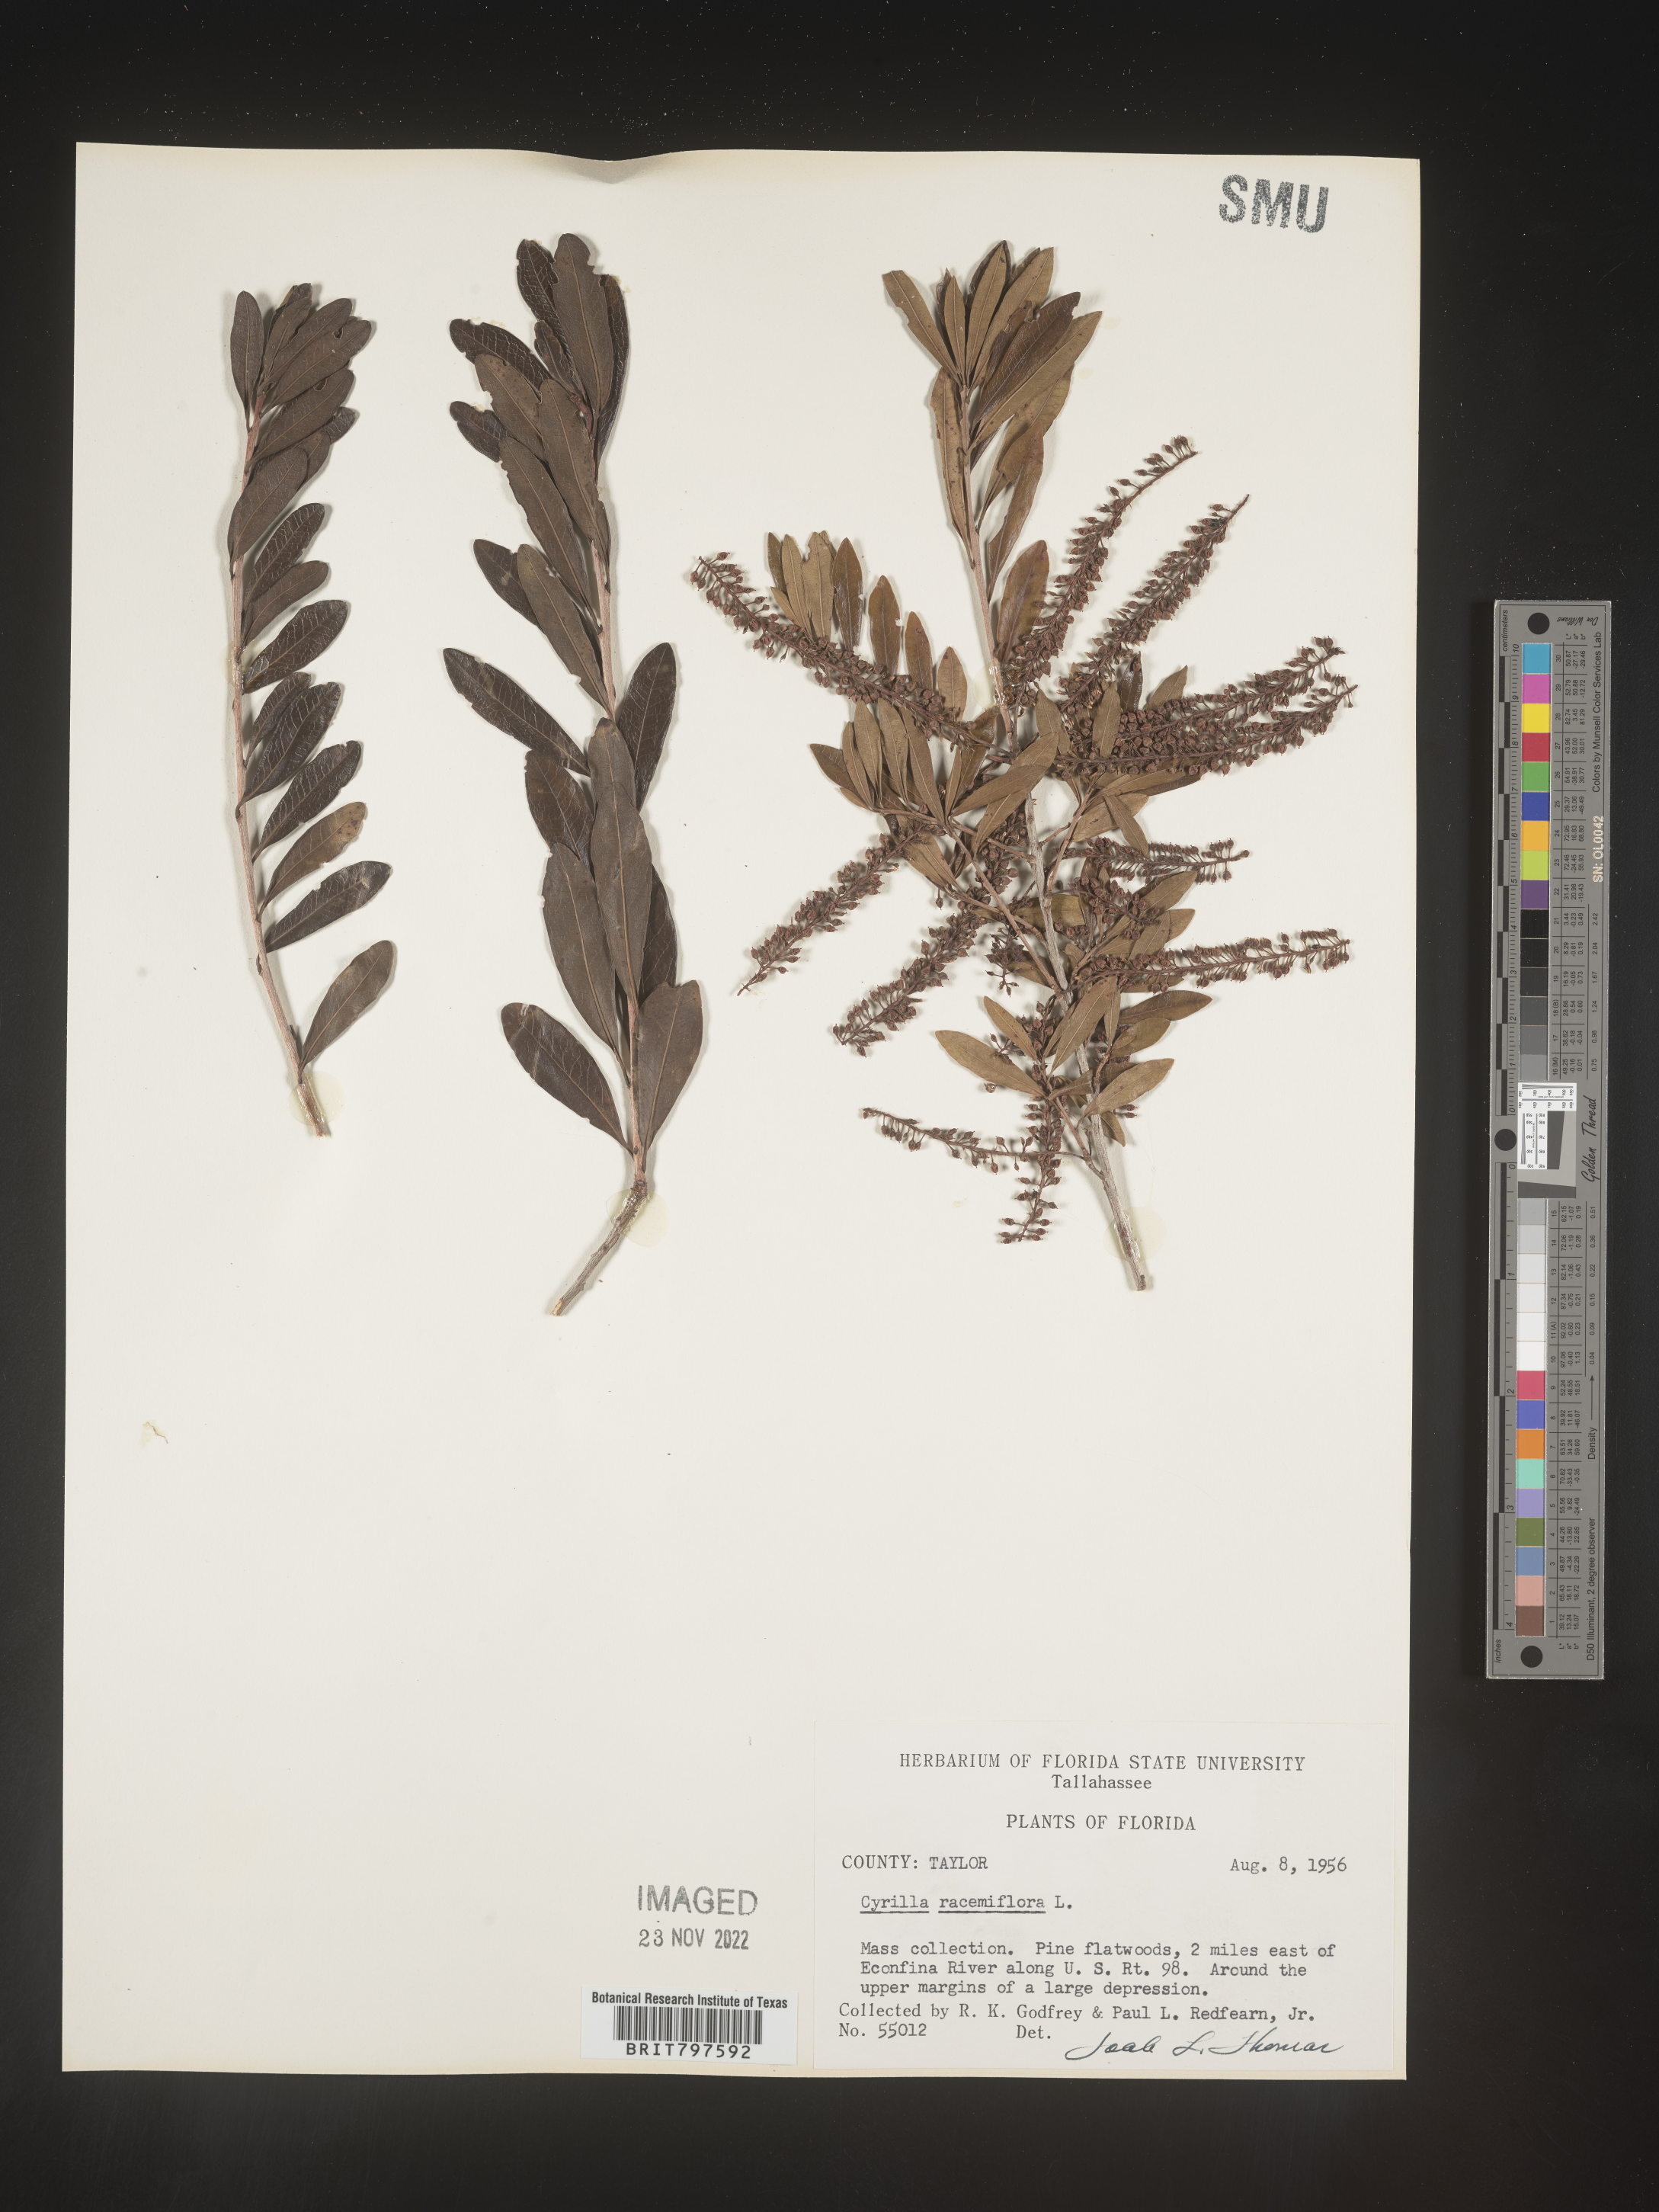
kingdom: Plantae
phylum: Tracheophyta
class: Magnoliopsida
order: Ericales
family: Cyrillaceae
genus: Cyrilla
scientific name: Cyrilla racemiflora
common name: Black titi
